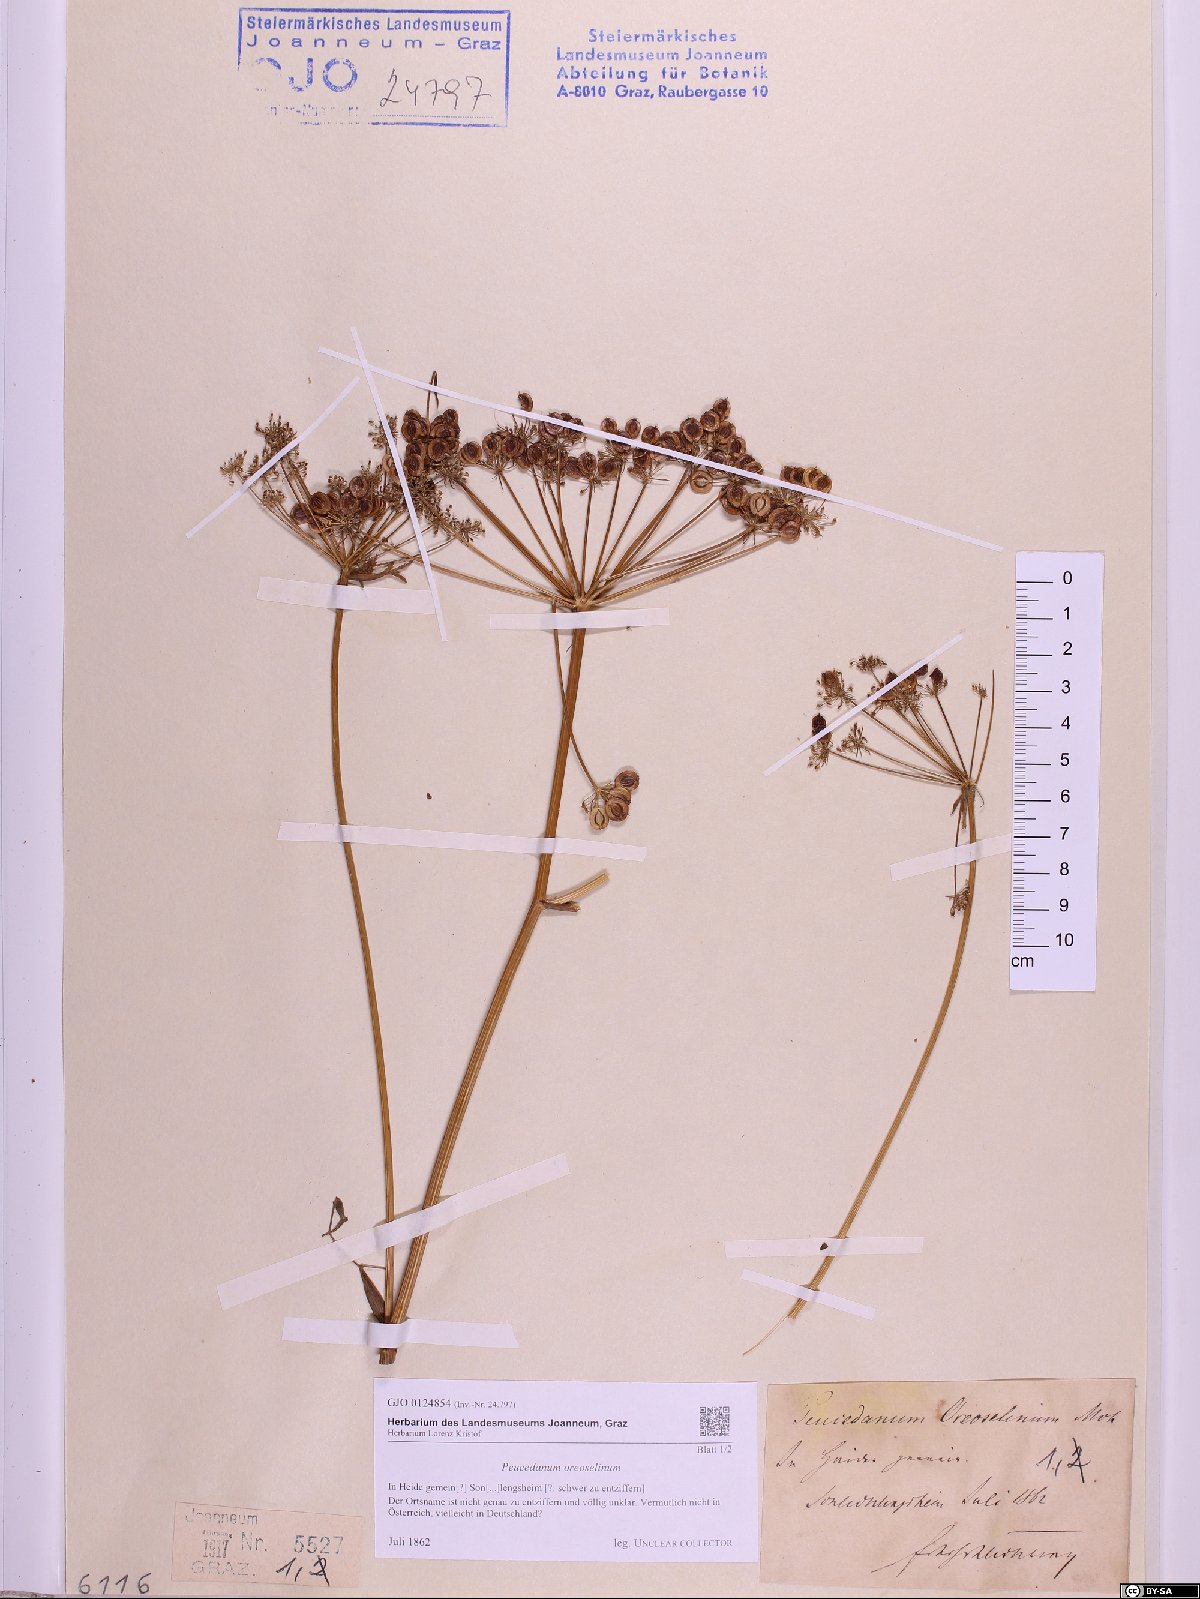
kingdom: Plantae
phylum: Tracheophyta
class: Magnoliopsida
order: Apiales
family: Apiaceae
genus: Oreoselinum
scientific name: Oreoselinum nigrum
